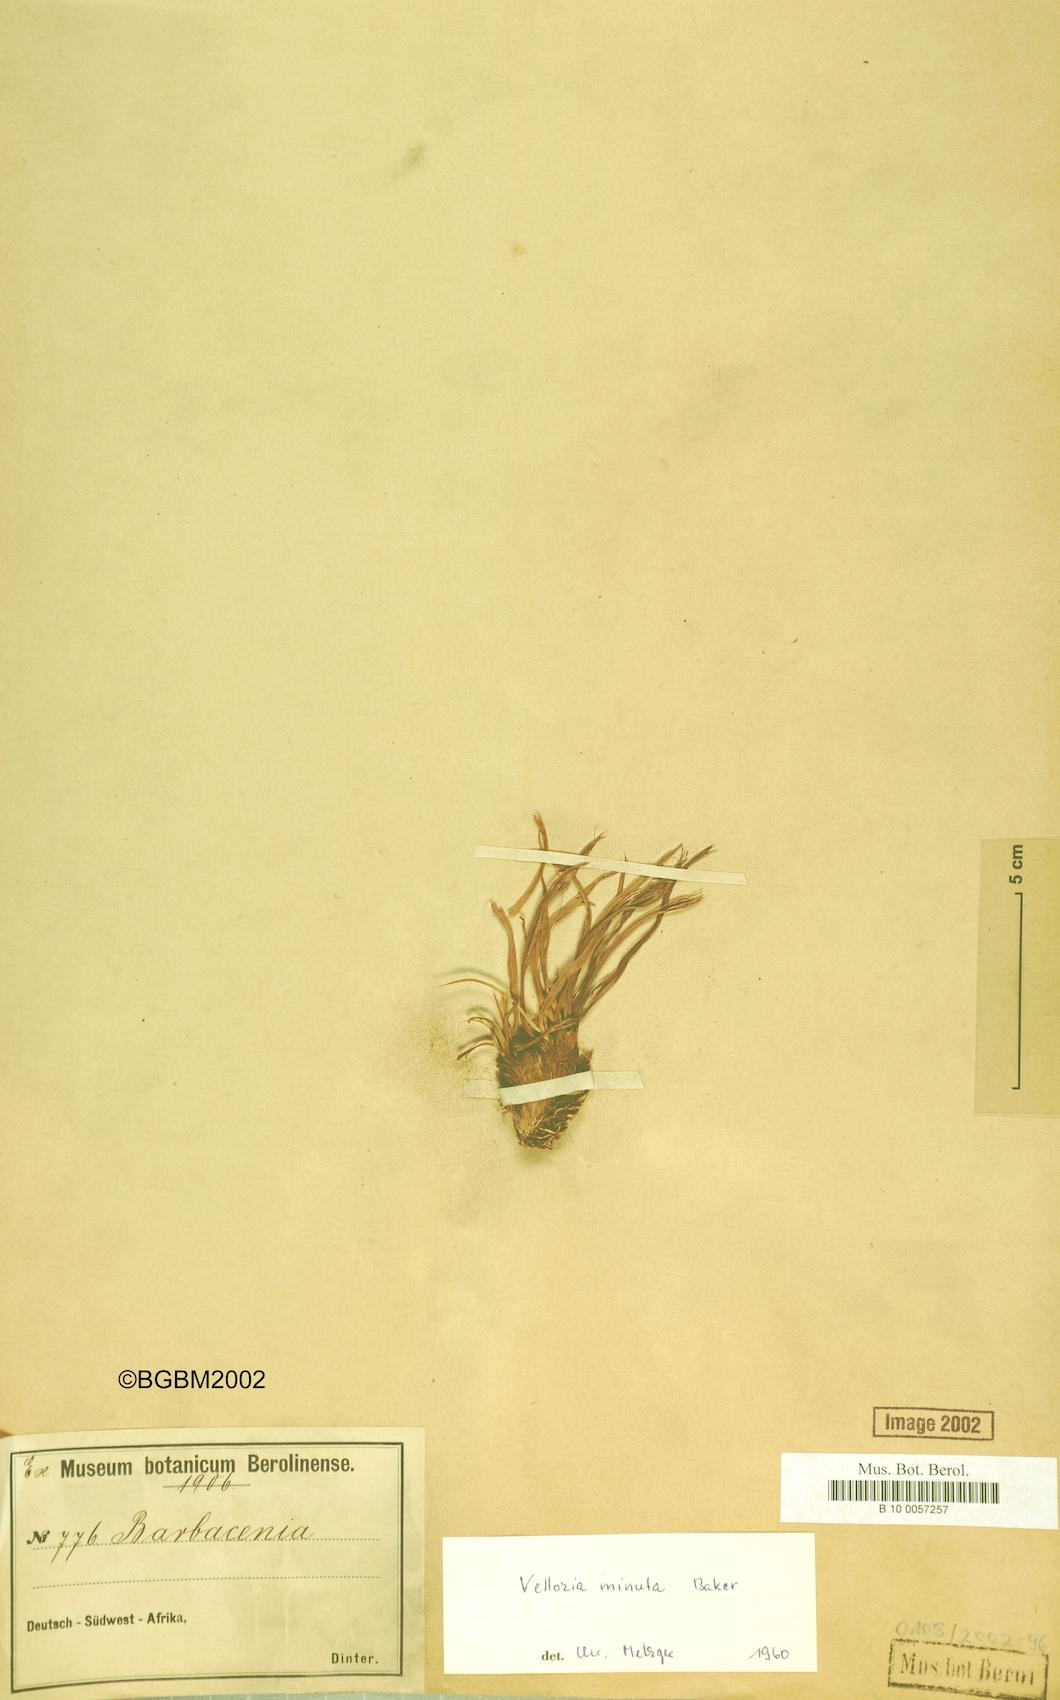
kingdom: Plantae
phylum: Tracheophyta
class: Liliopsida
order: Pandanales
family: Velloziaceae
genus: Xerophyta
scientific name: Xerophyta elegans
